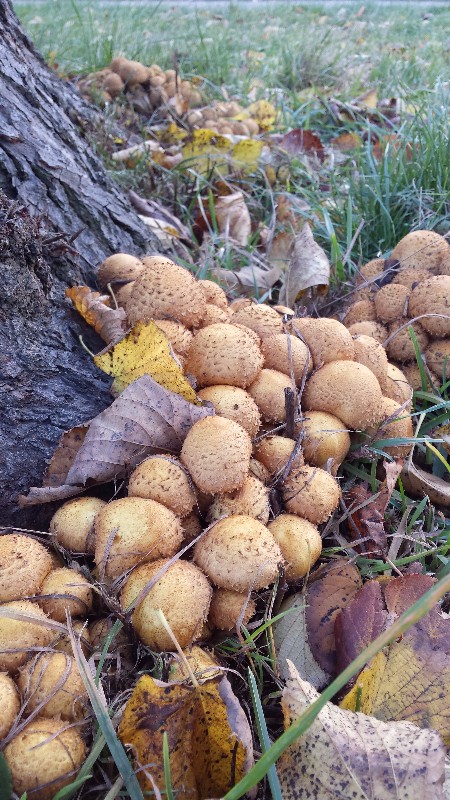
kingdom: Fungi
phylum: Basidiomycota
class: Agaricomycetes
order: Agaricales
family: Strophariaceae
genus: Pholiota
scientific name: Pholiota squarrosa
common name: krumskællet skælhat
